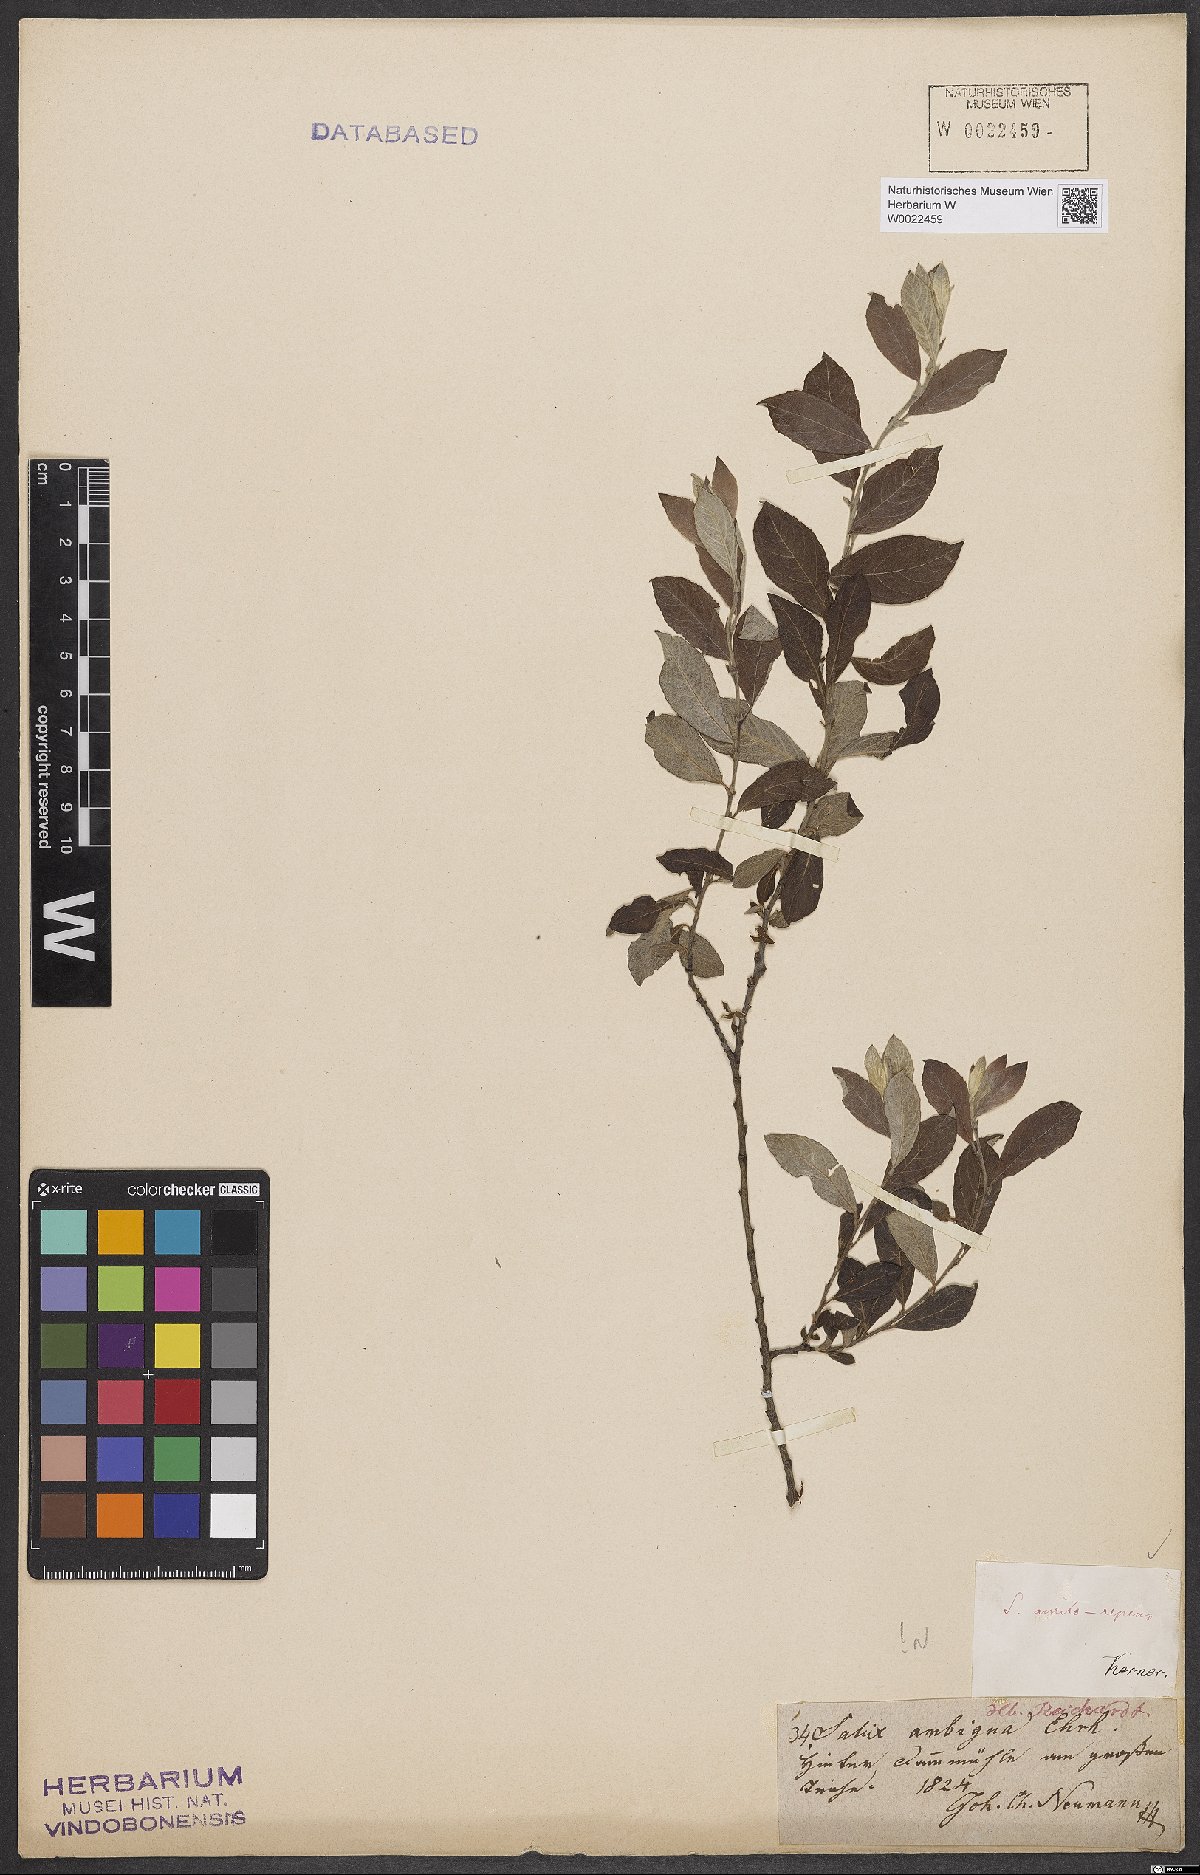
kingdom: Plantae
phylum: Tracheophyta
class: Magnoliopsida
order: Malpighiales
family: Salicaceae
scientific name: Salicaceae
